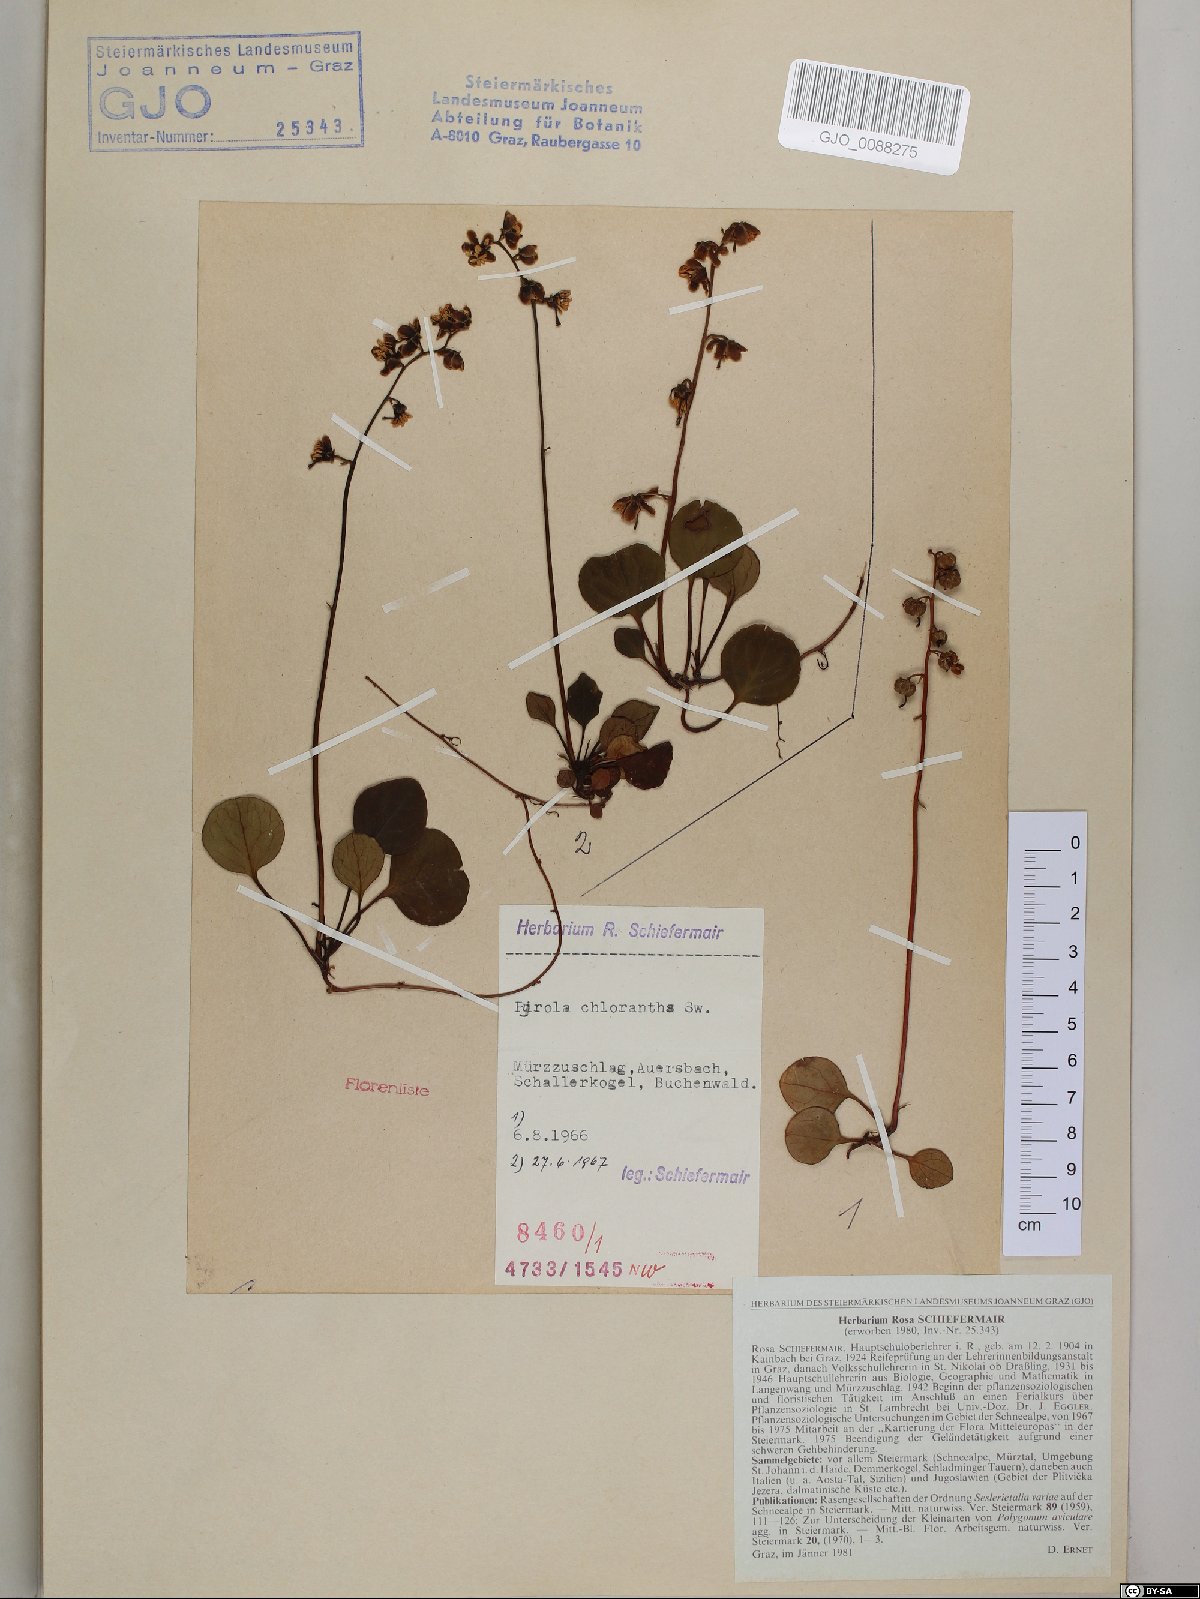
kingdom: Plantae
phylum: Tracheophyta
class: Magnoliopsida
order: Ericales
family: Ericaceae
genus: Pyrola
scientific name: Pyrola chlorantha
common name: Green wintergreen
